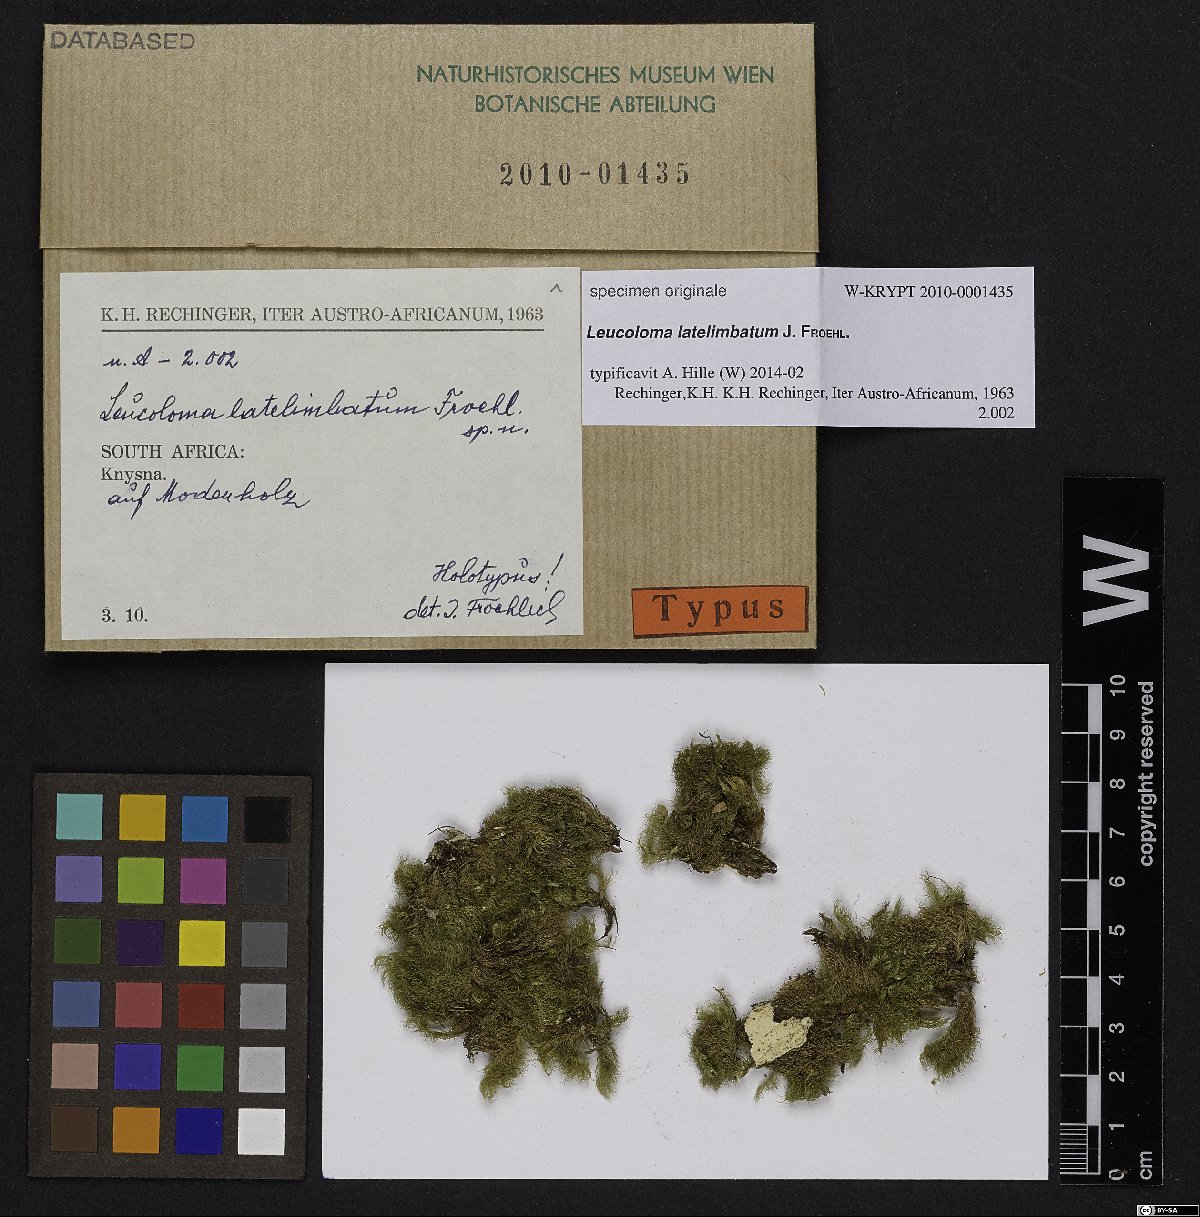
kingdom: Plantae
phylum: Bryophyta
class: Bryopsida
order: Dicranales
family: Dicranaceae
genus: Leucoloma
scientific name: Leucoloma
